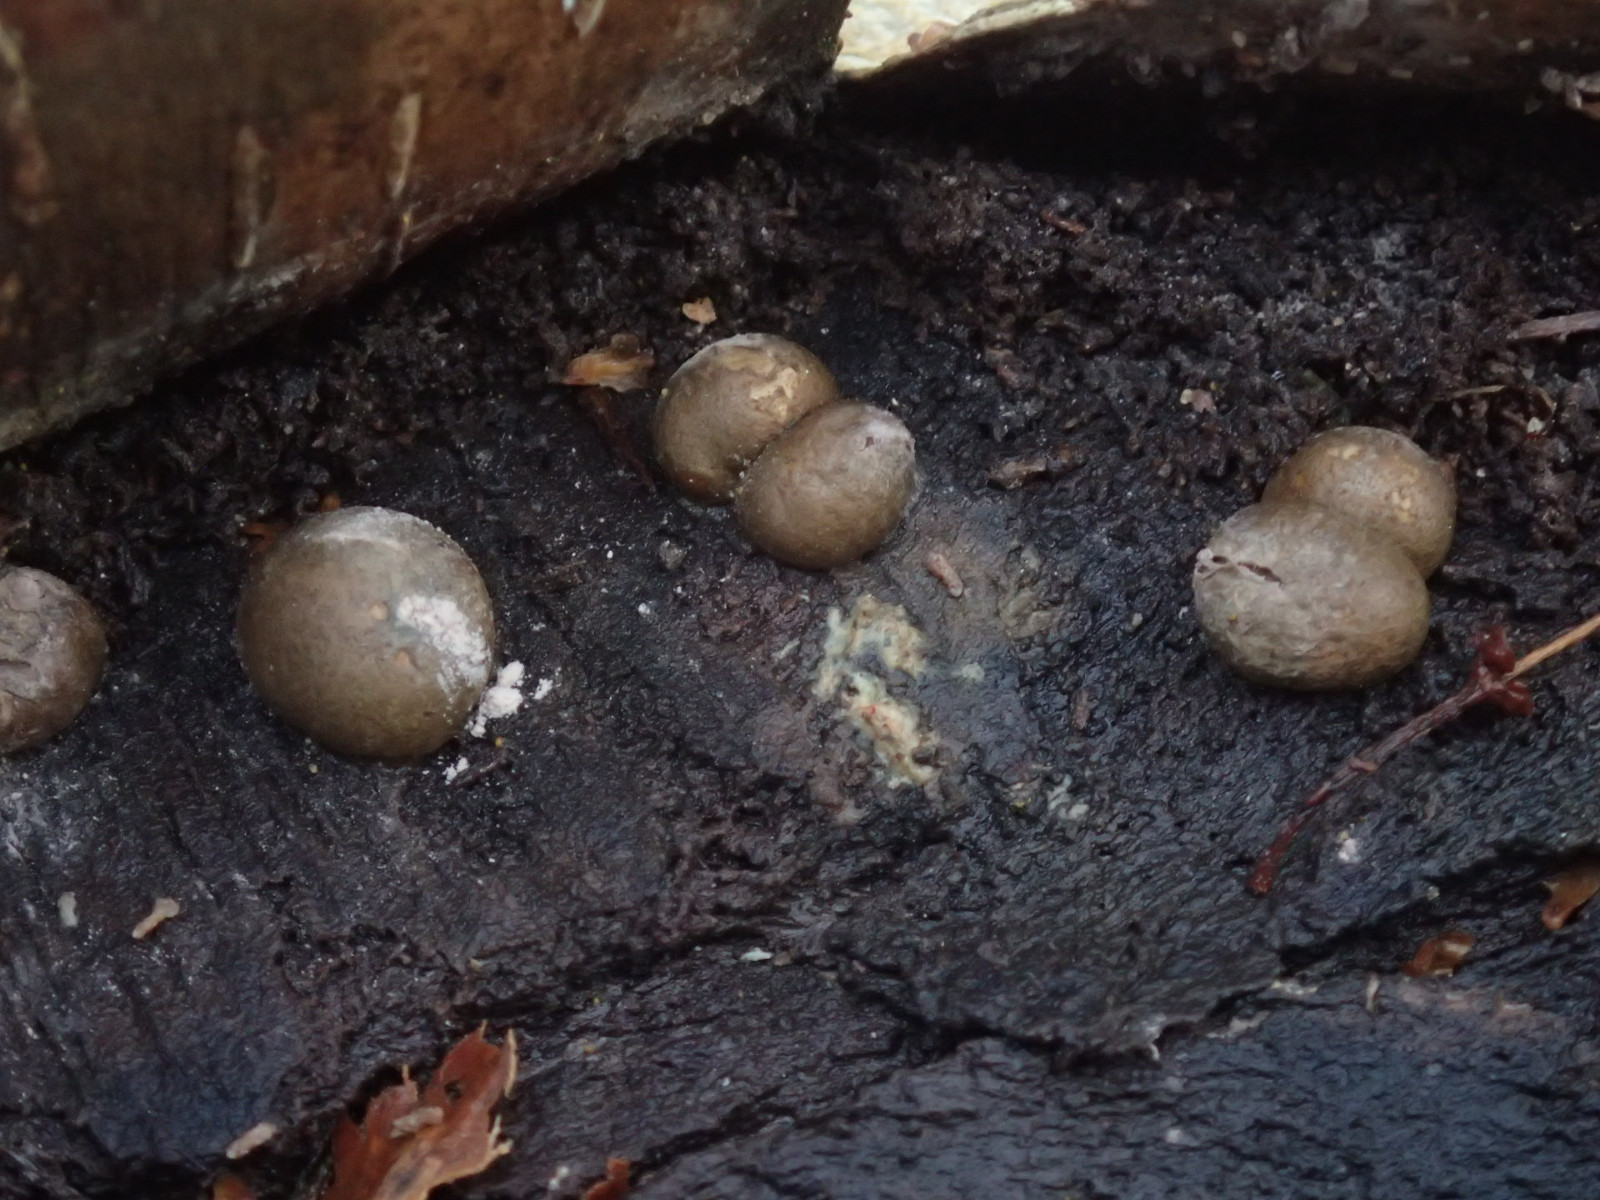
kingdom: Protozoa
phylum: Mycetozoa
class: Myxomycetes
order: Cribrariales
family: Tubiferaceae
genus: Lycogala
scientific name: Lycogala epidendrum
